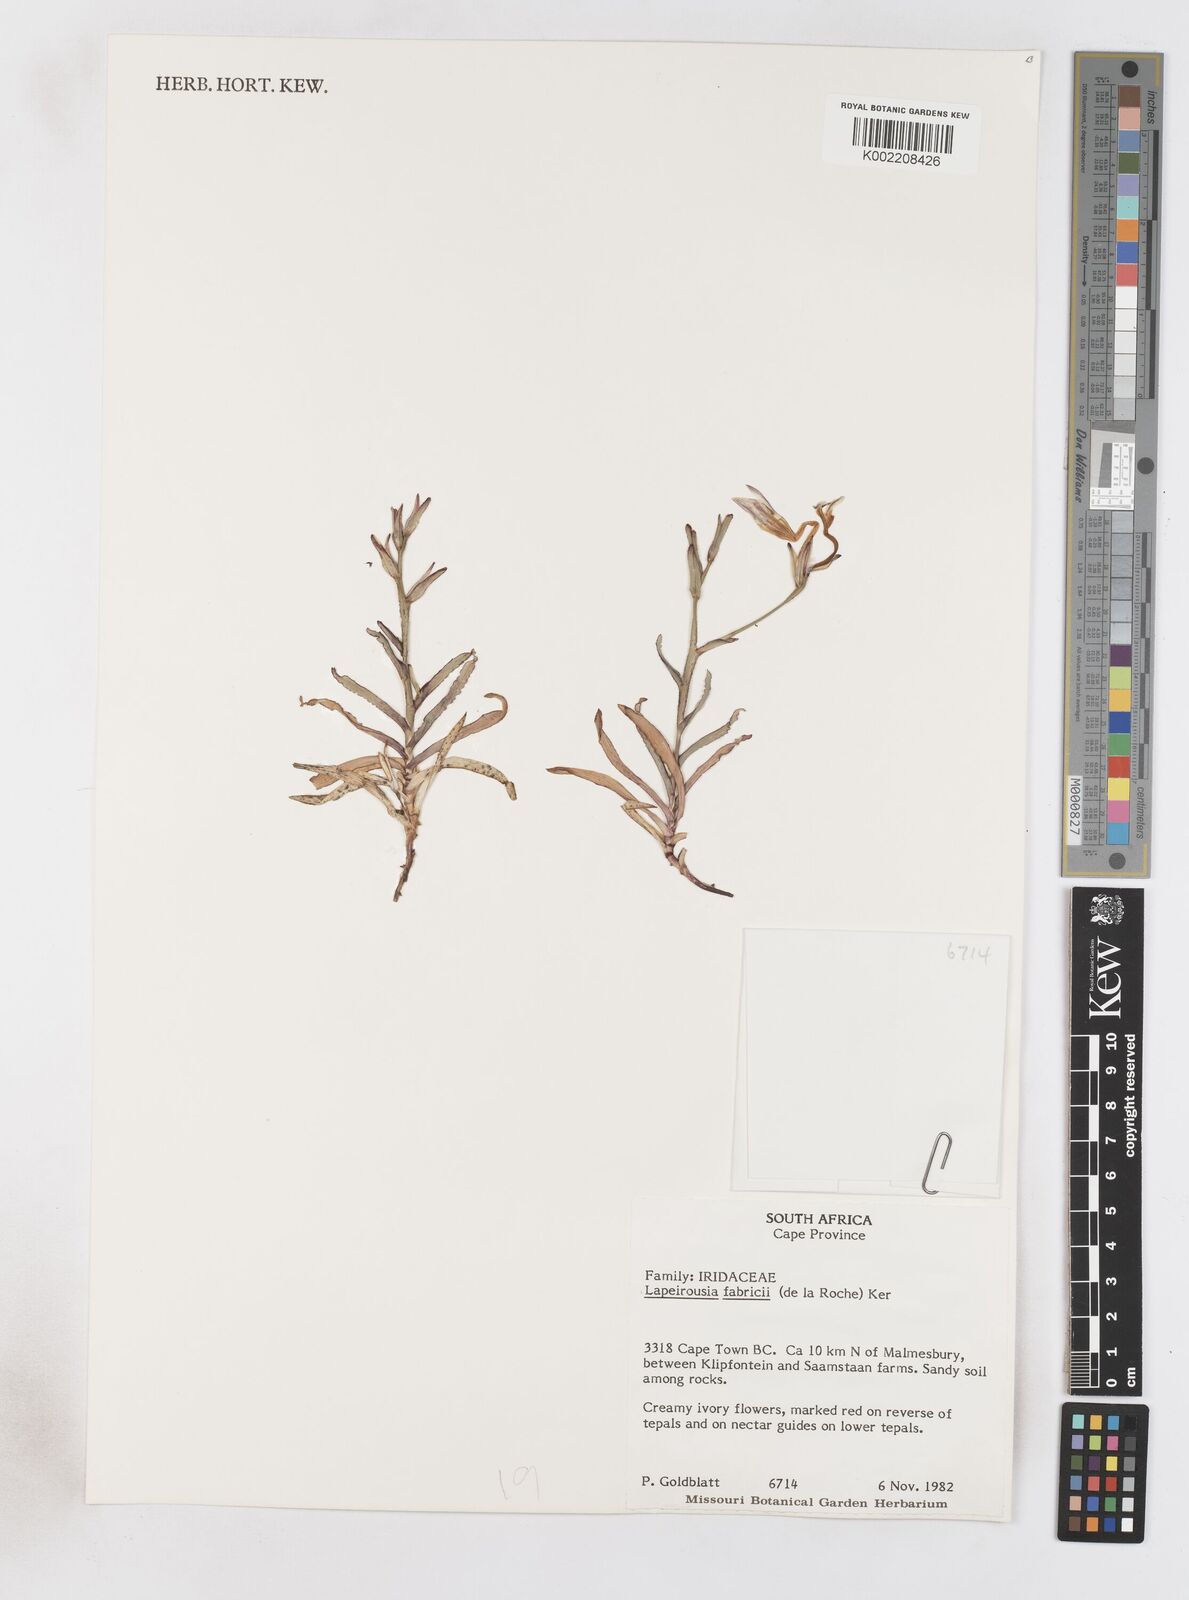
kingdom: Plantae
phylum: Tracheophyta
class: Liliopsida
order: Asparagales
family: Iridaceae
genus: Lapeirousia
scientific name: Lapeirousia fabricii
